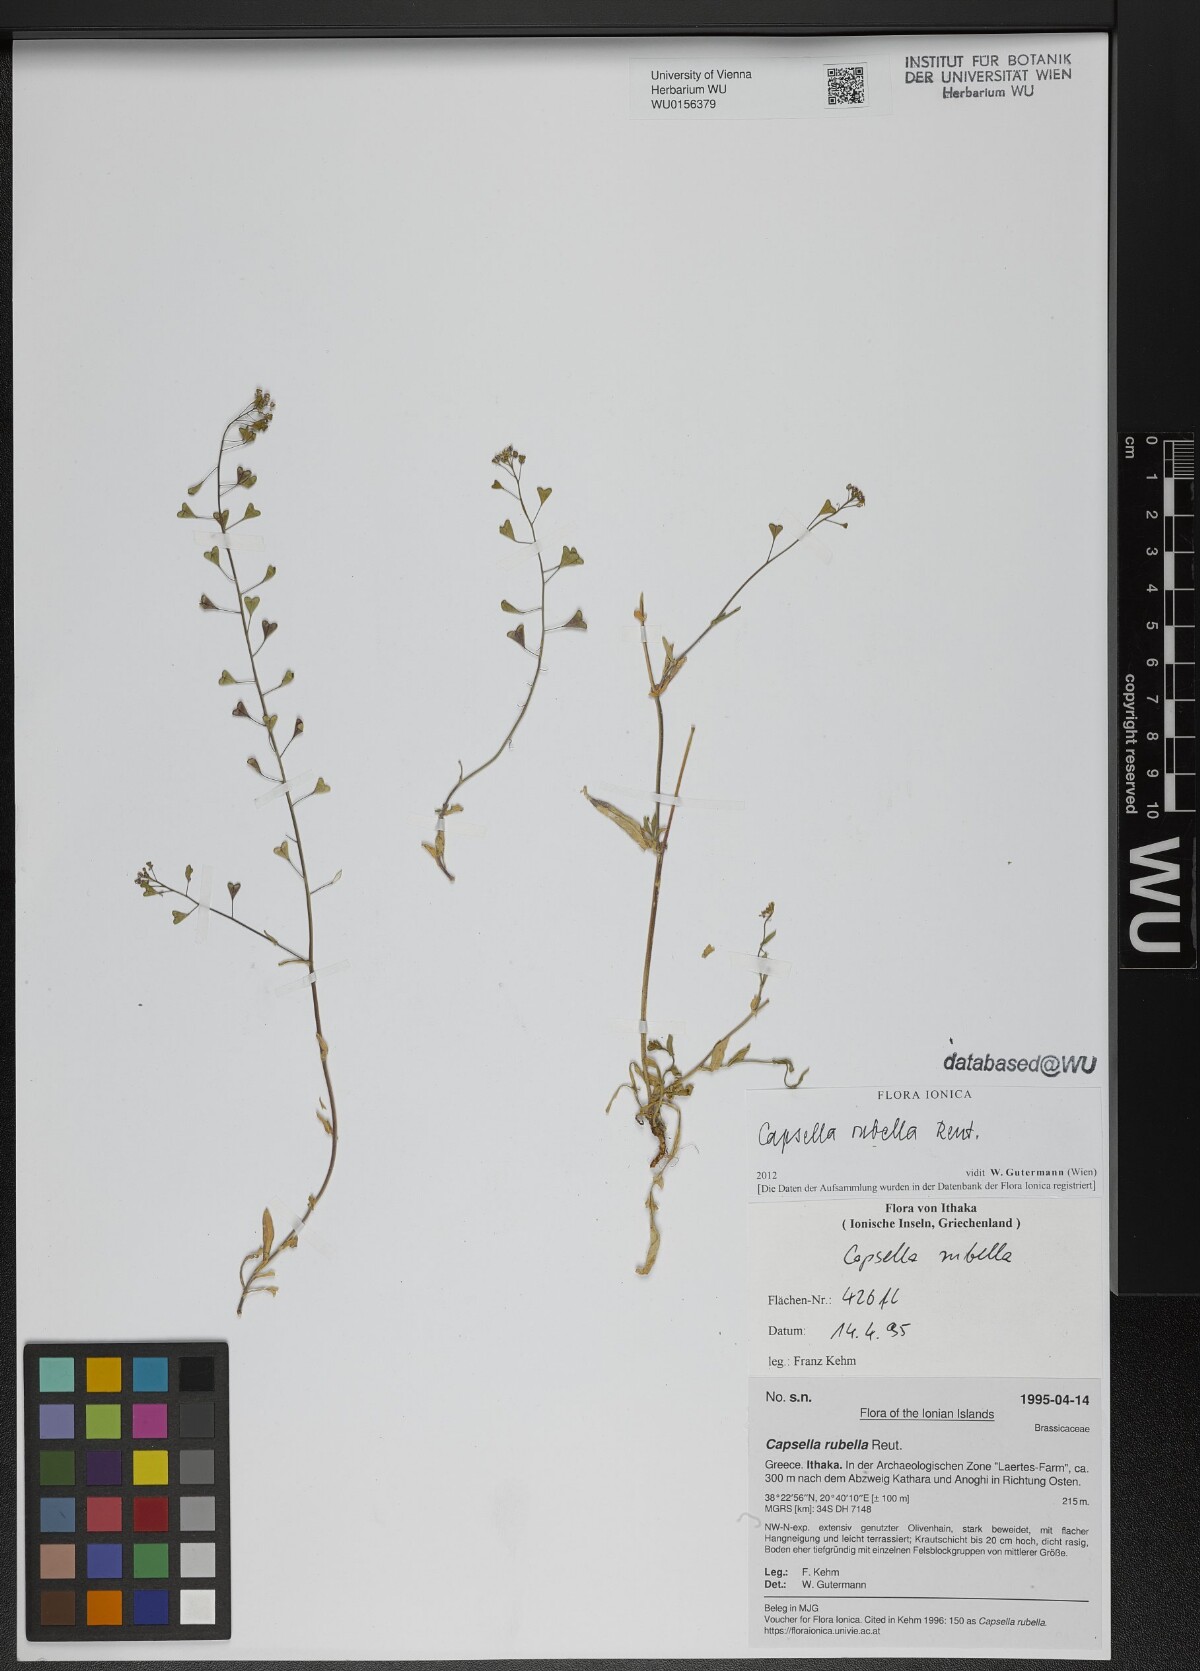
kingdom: Plantae
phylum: Tracheophyta
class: Magnoliopsida
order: Brassicales
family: Brassicaceae
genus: Capsella
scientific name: Capsella rubella
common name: Pink shepherd's-purse
